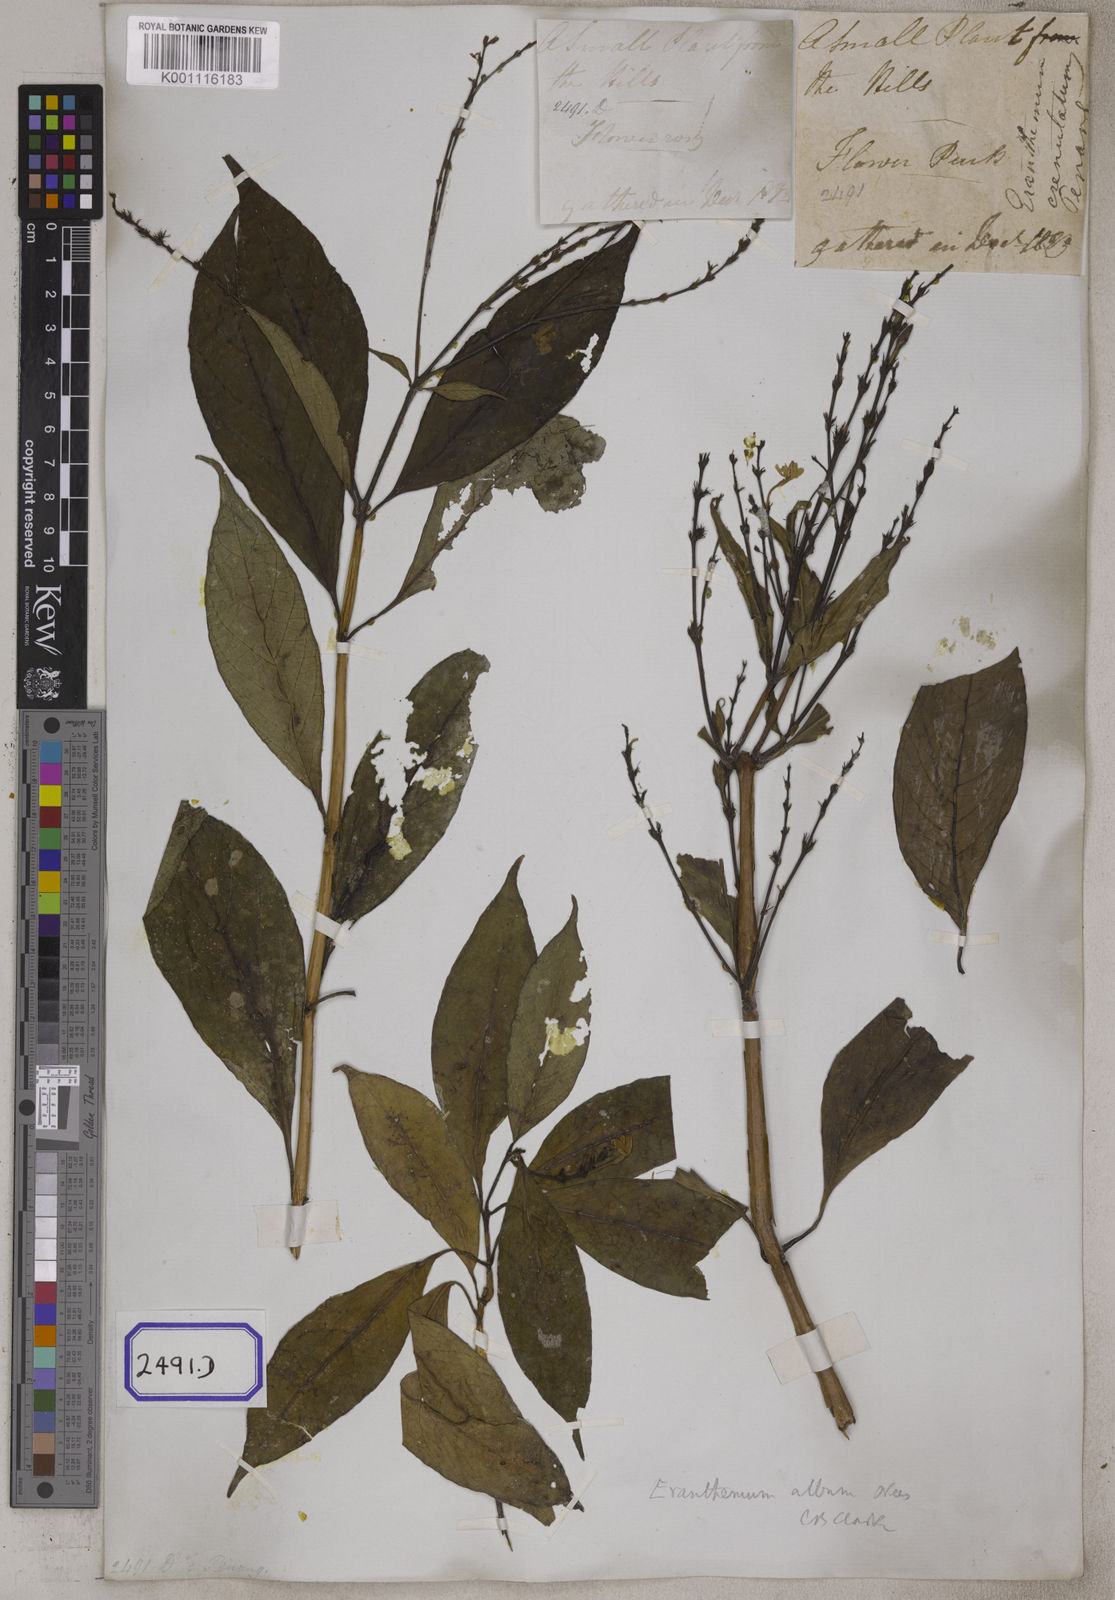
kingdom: Plantae
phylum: Tracheophyta
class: Magnoliopsida
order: Lamiales
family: Acanthaceae
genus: Eranthemum
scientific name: Eranthemum
